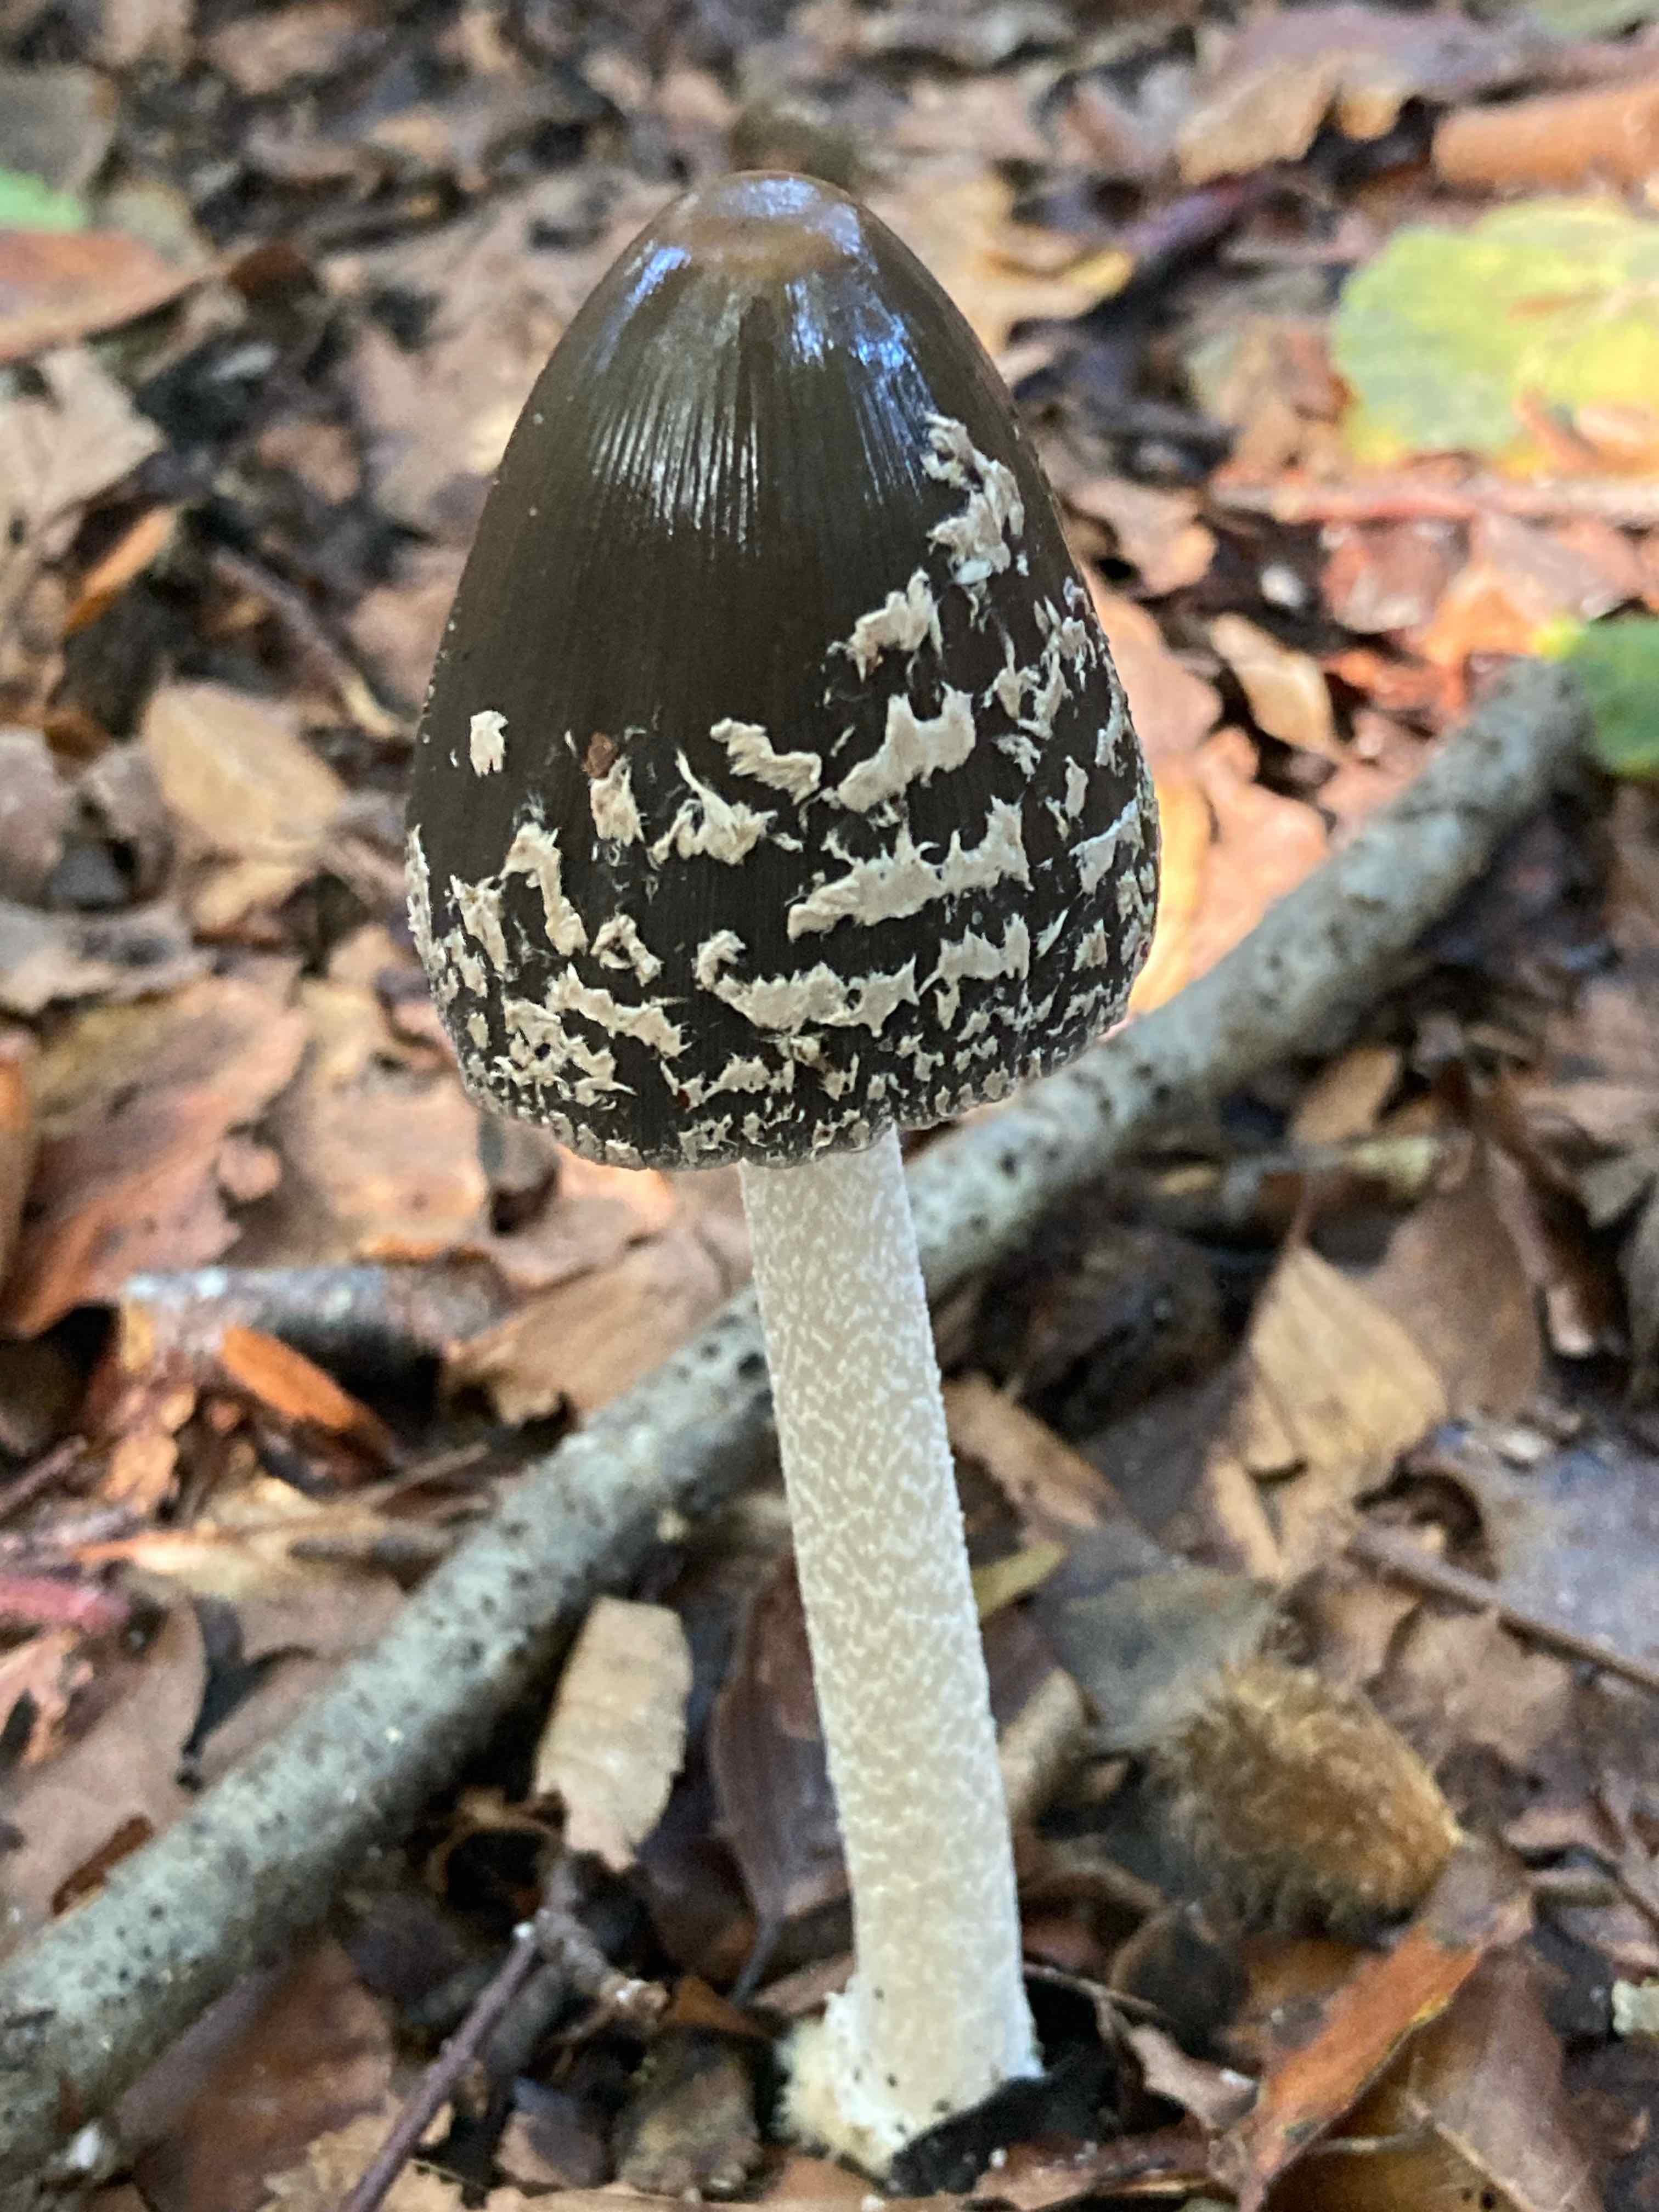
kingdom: Fungi
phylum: Basidiomycota
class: Agaricomycetes
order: Agaricales
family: Psathyrellaceae
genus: Coprinopsis
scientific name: Coprinopsis picacea
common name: skade-blækhat
